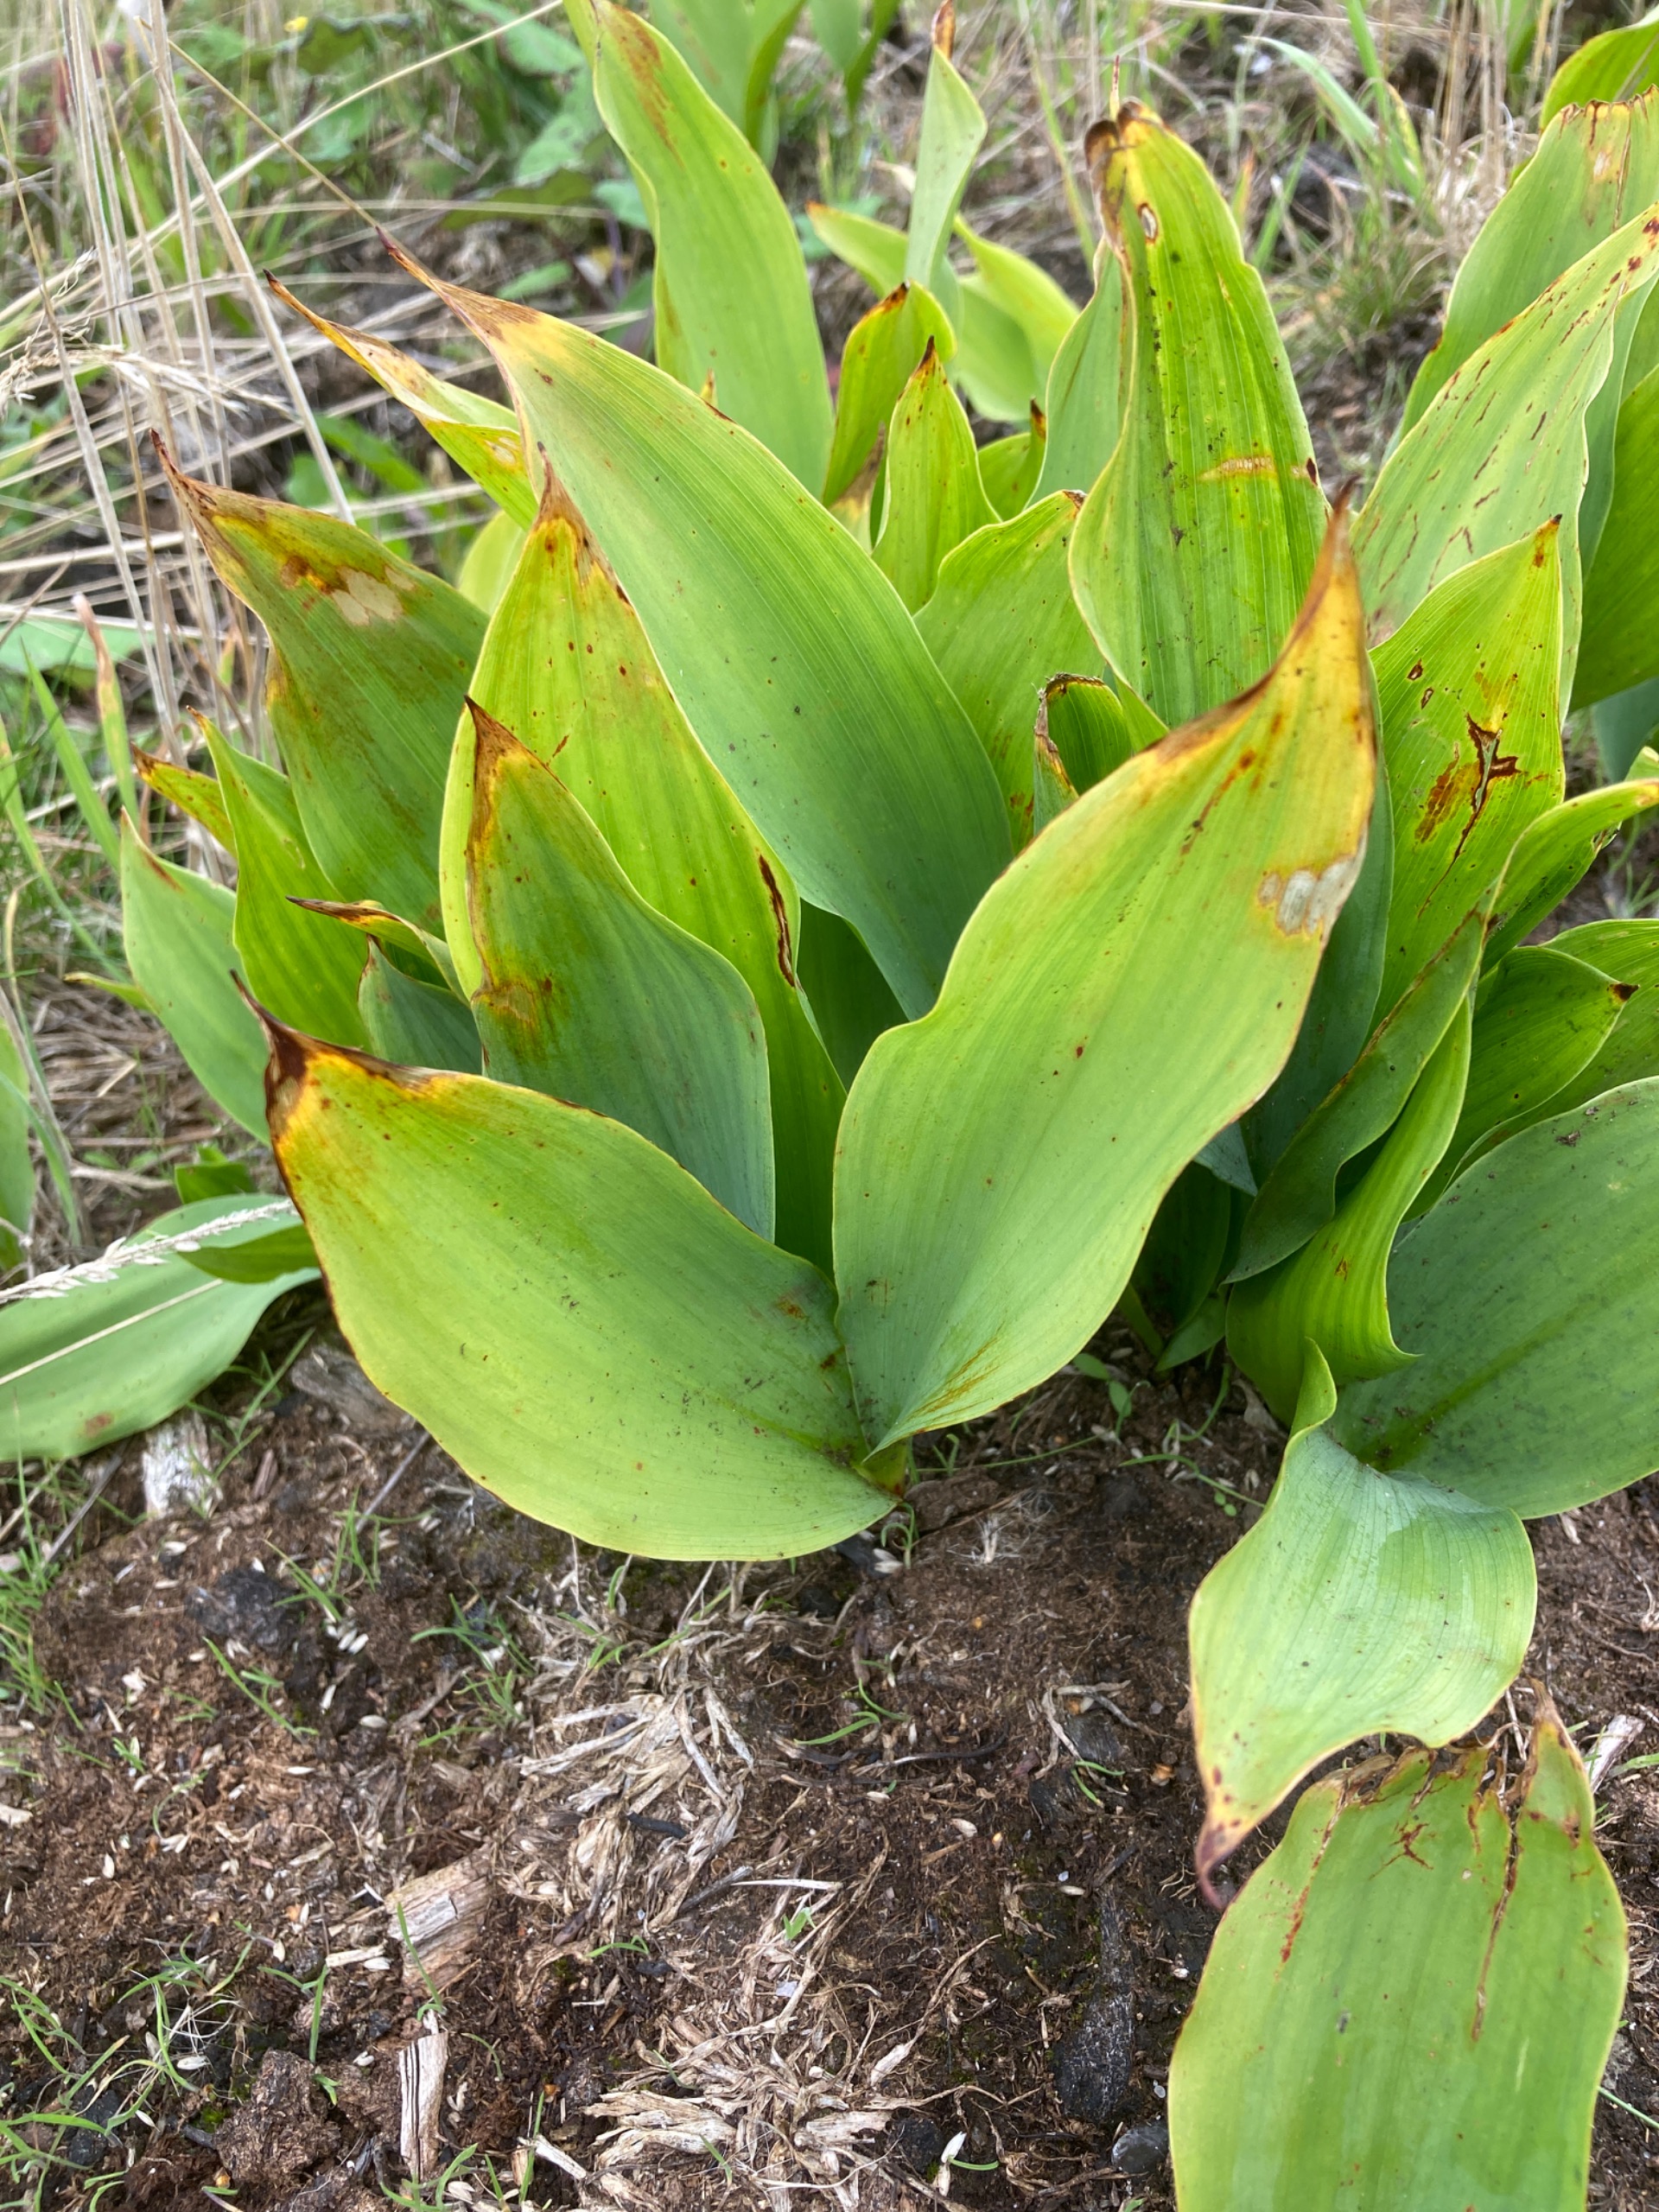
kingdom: Plantae
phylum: Tracheophyta
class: Liliopsida
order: Asparagales
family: Asparagaceae
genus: Convallaria
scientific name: Convallaria majalis
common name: Liljekonval
